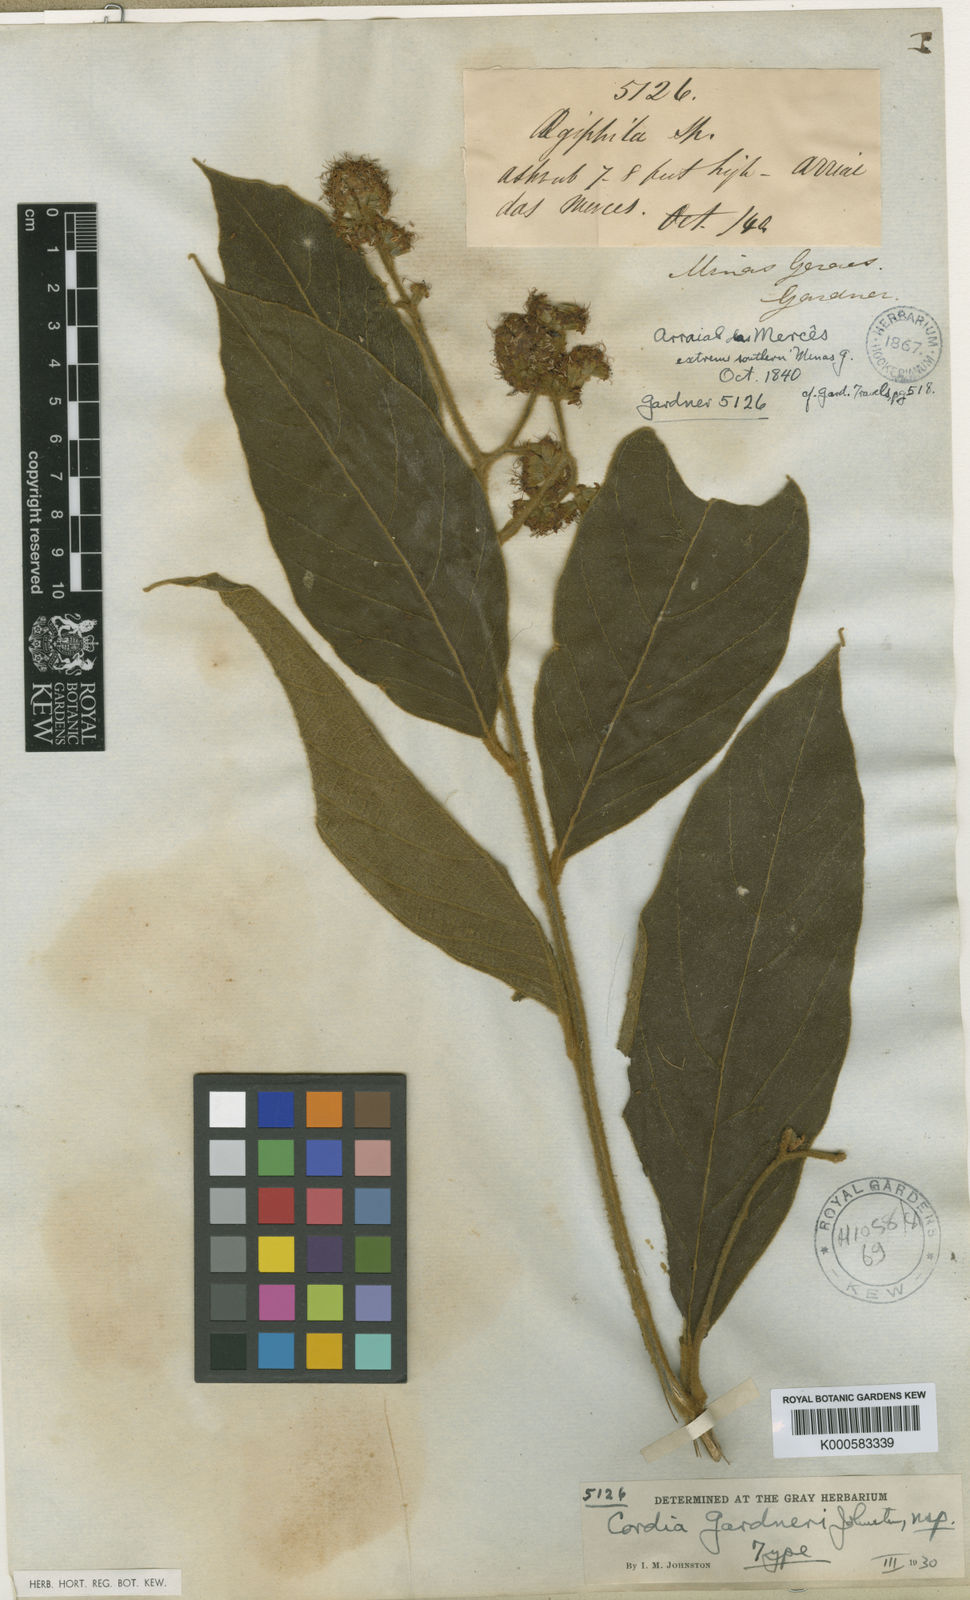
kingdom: Plantae
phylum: Tracheophyta
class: Magnoliopsida
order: Boraginales
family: Cordiaceae
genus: Cordia
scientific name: Cordia gardneri
